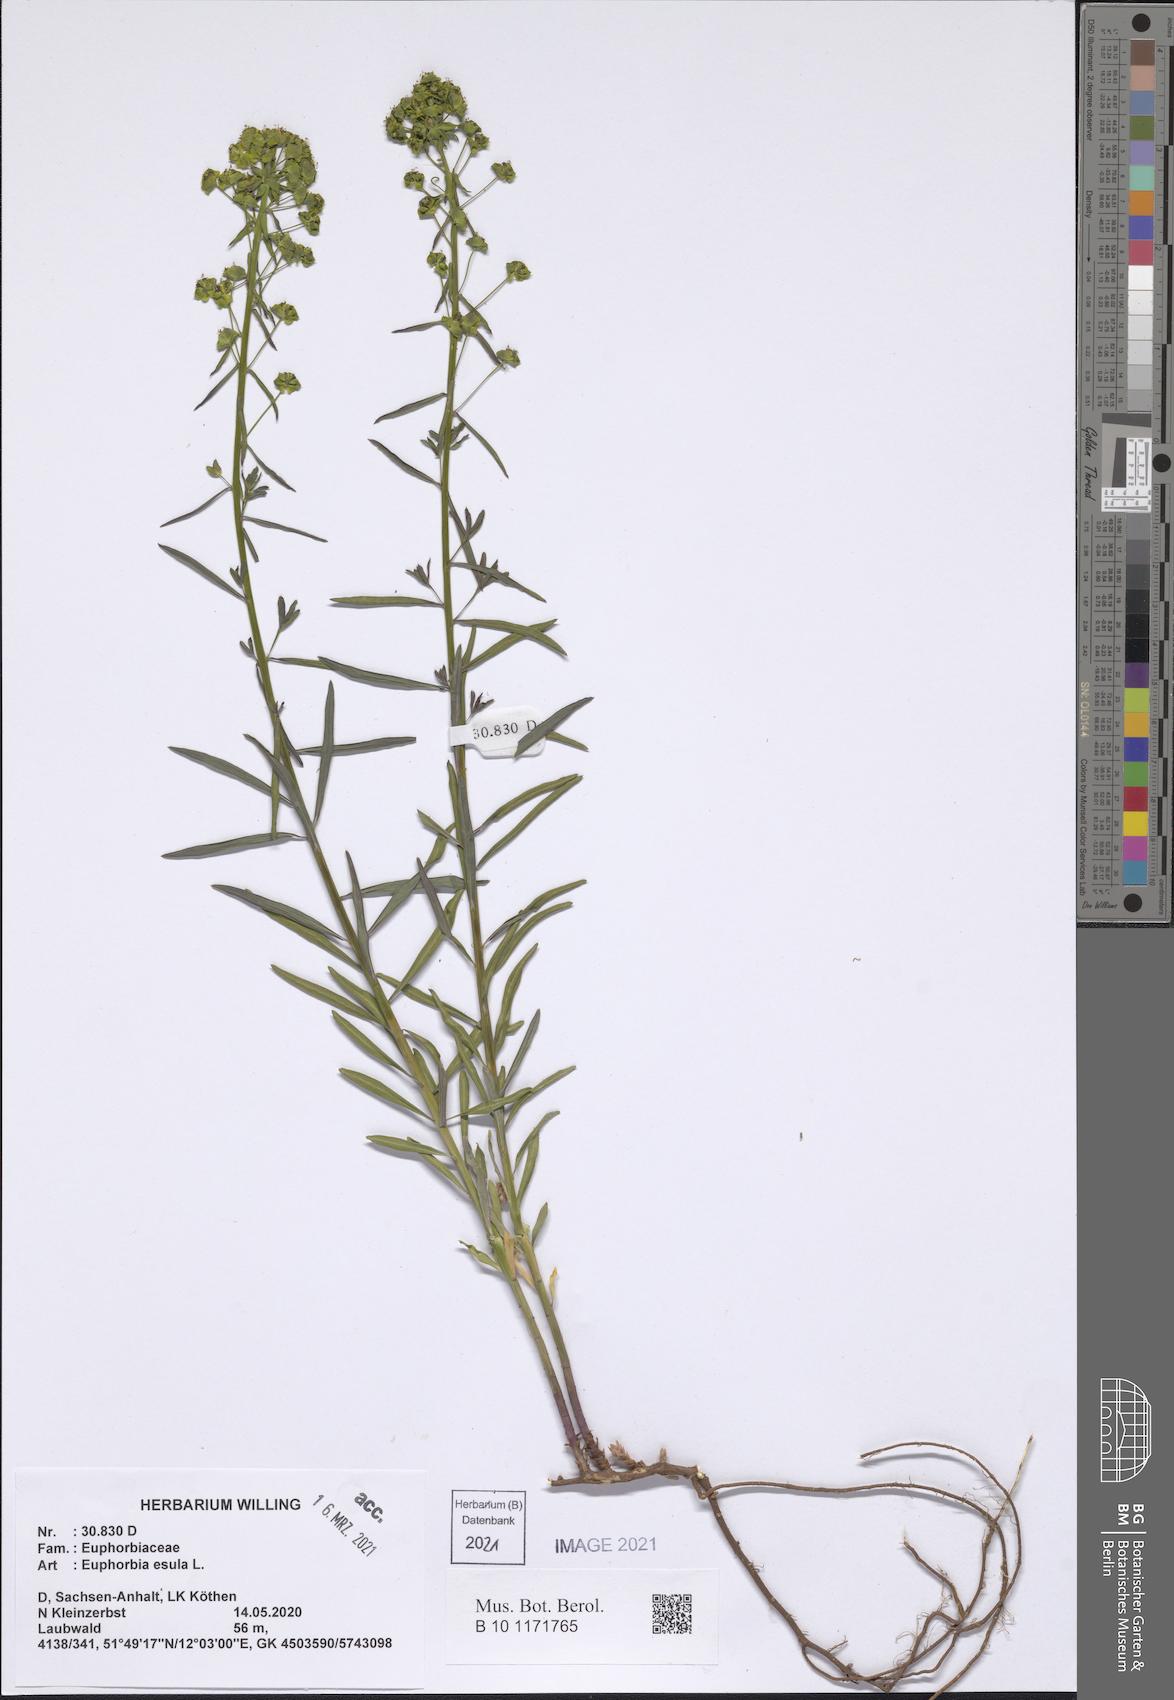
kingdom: Plantae
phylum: Tracheophyta
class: Magnoliopsida
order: Malpighiales
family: Euphorbiaceae
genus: Euphorbia
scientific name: Euphorbia esula
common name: Leafy spurge
